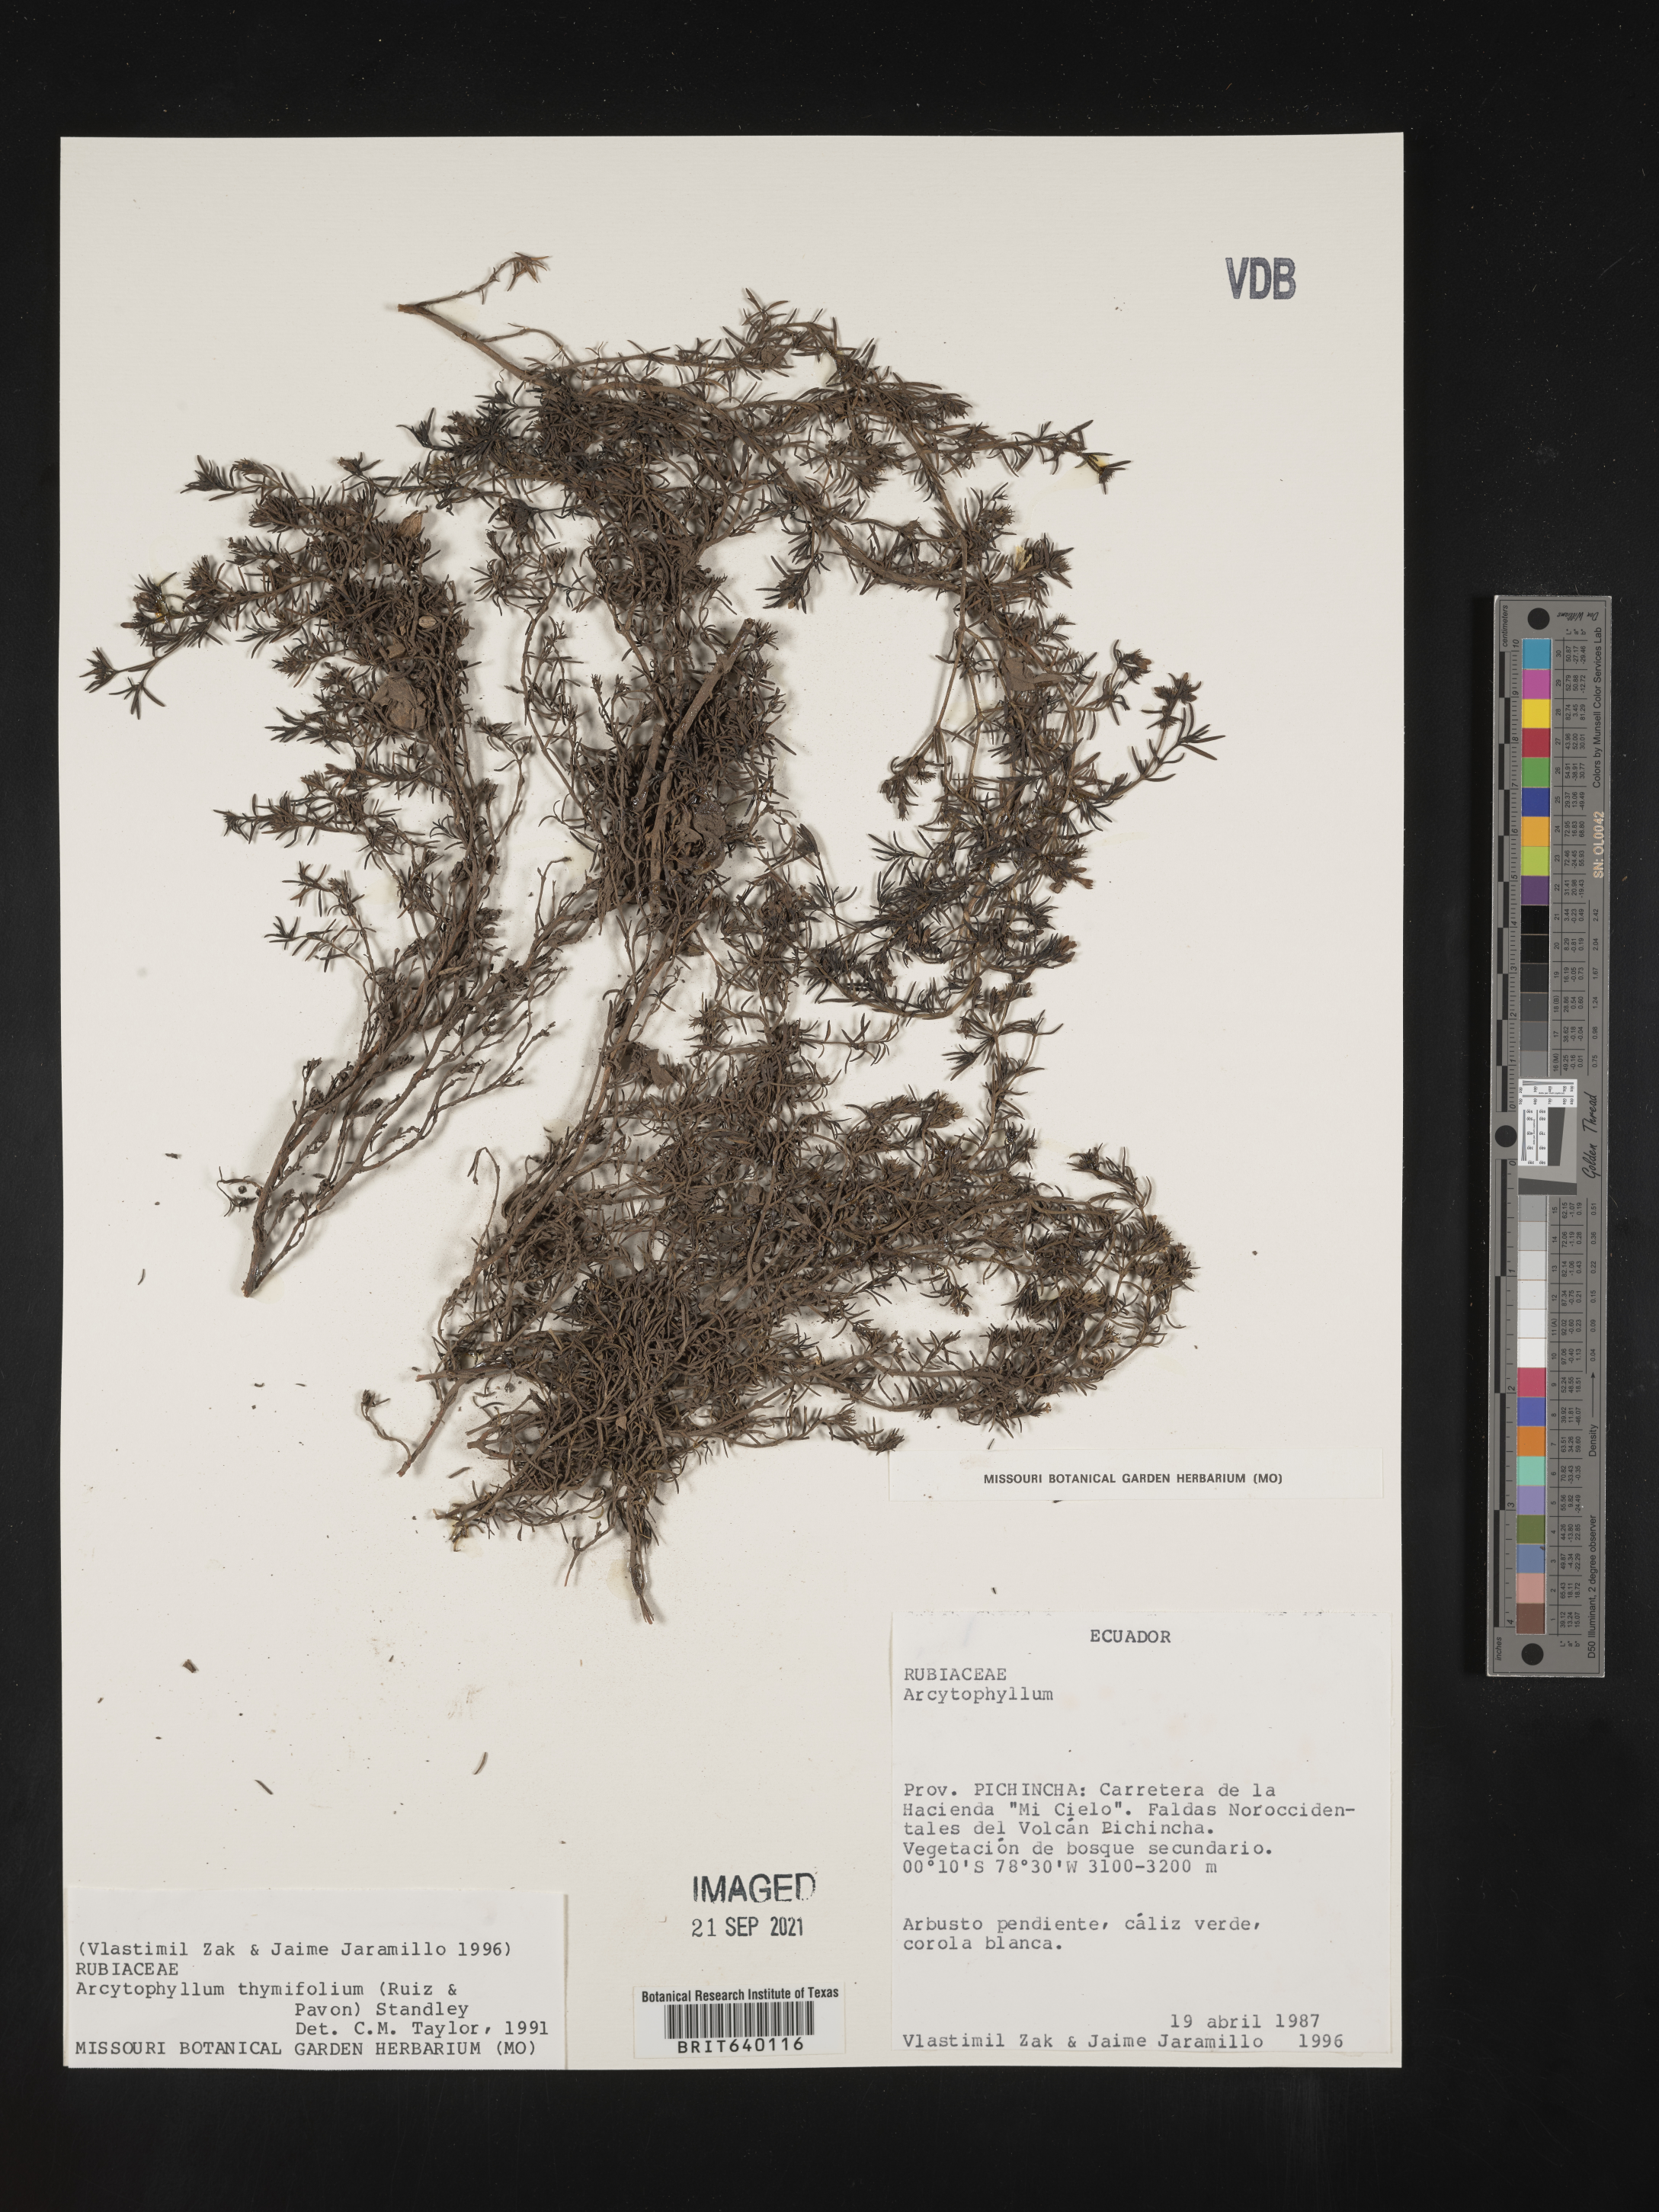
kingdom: Plantae
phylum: Tracheophyta
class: Magnoliopsida
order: Gentianales
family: Rubiaceae
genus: Arcytophyllum
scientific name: Arcytophyllum
